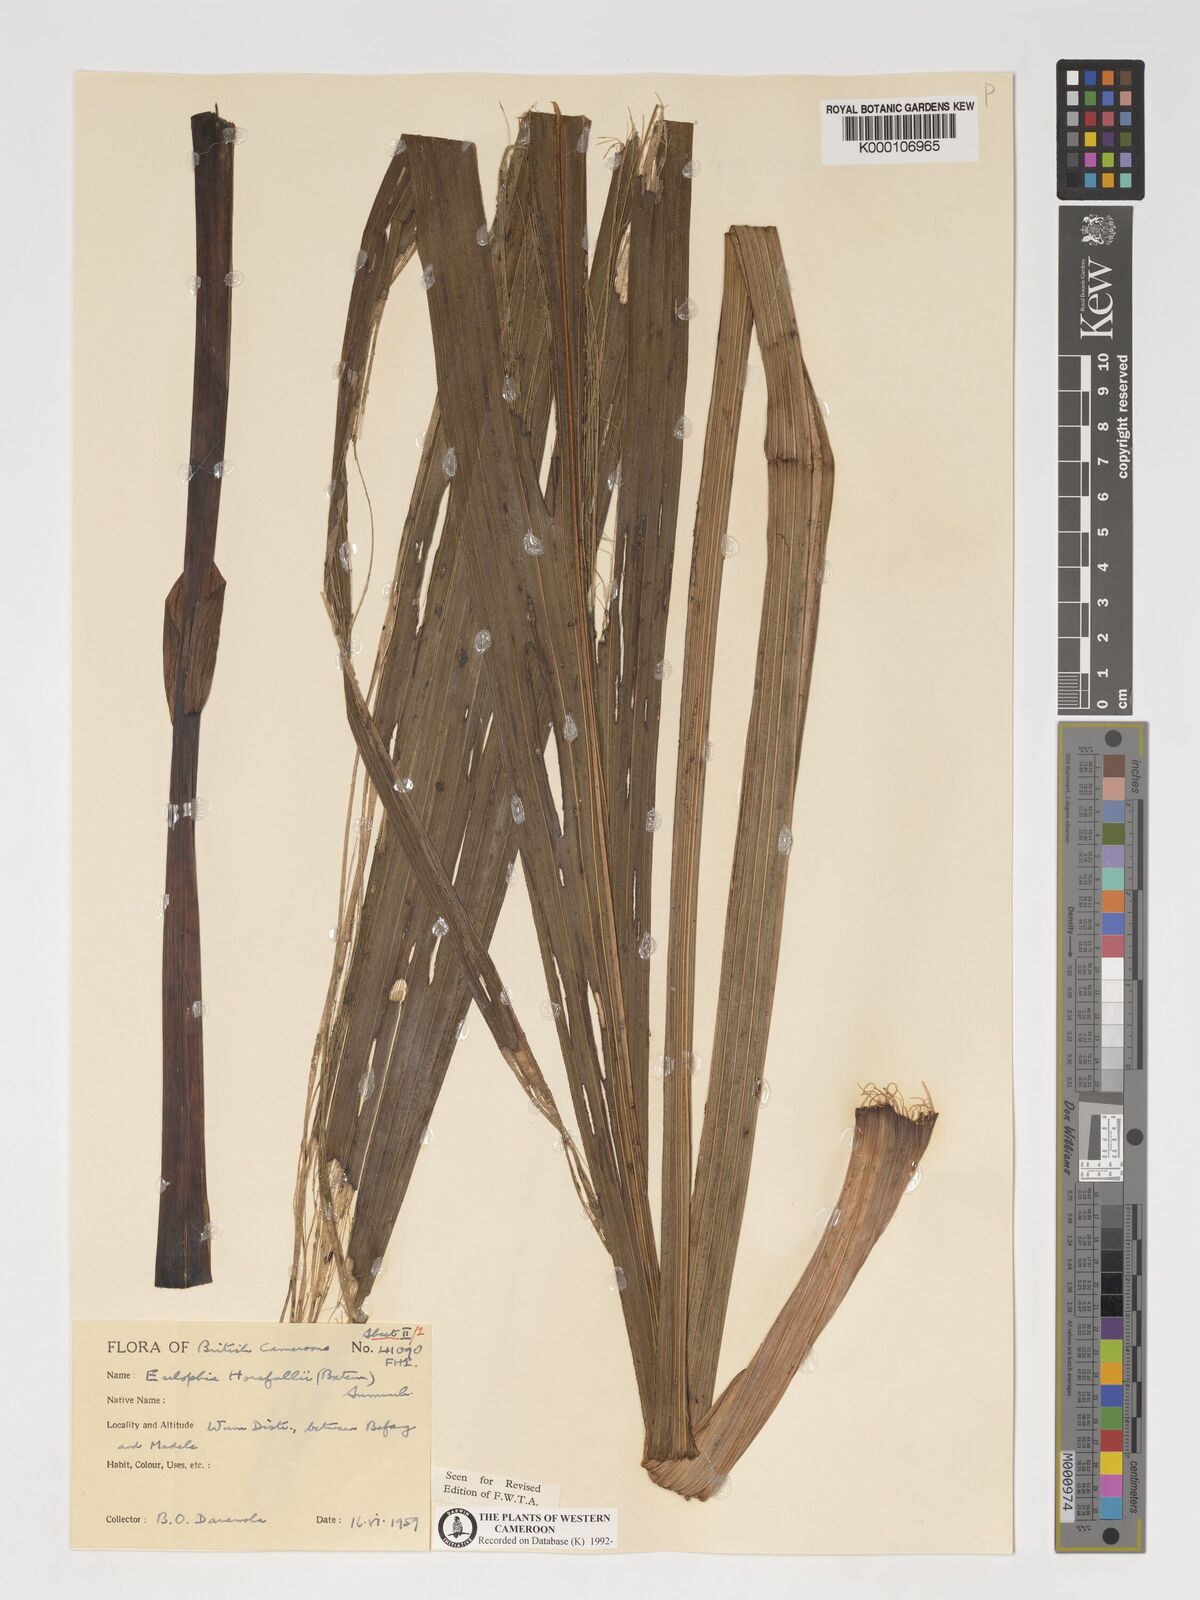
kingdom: Plantae
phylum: Tracheophyta
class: Liliopsida
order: Asparagales
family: Orchidaceae
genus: Eulophia
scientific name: Eulophia horsfallii
